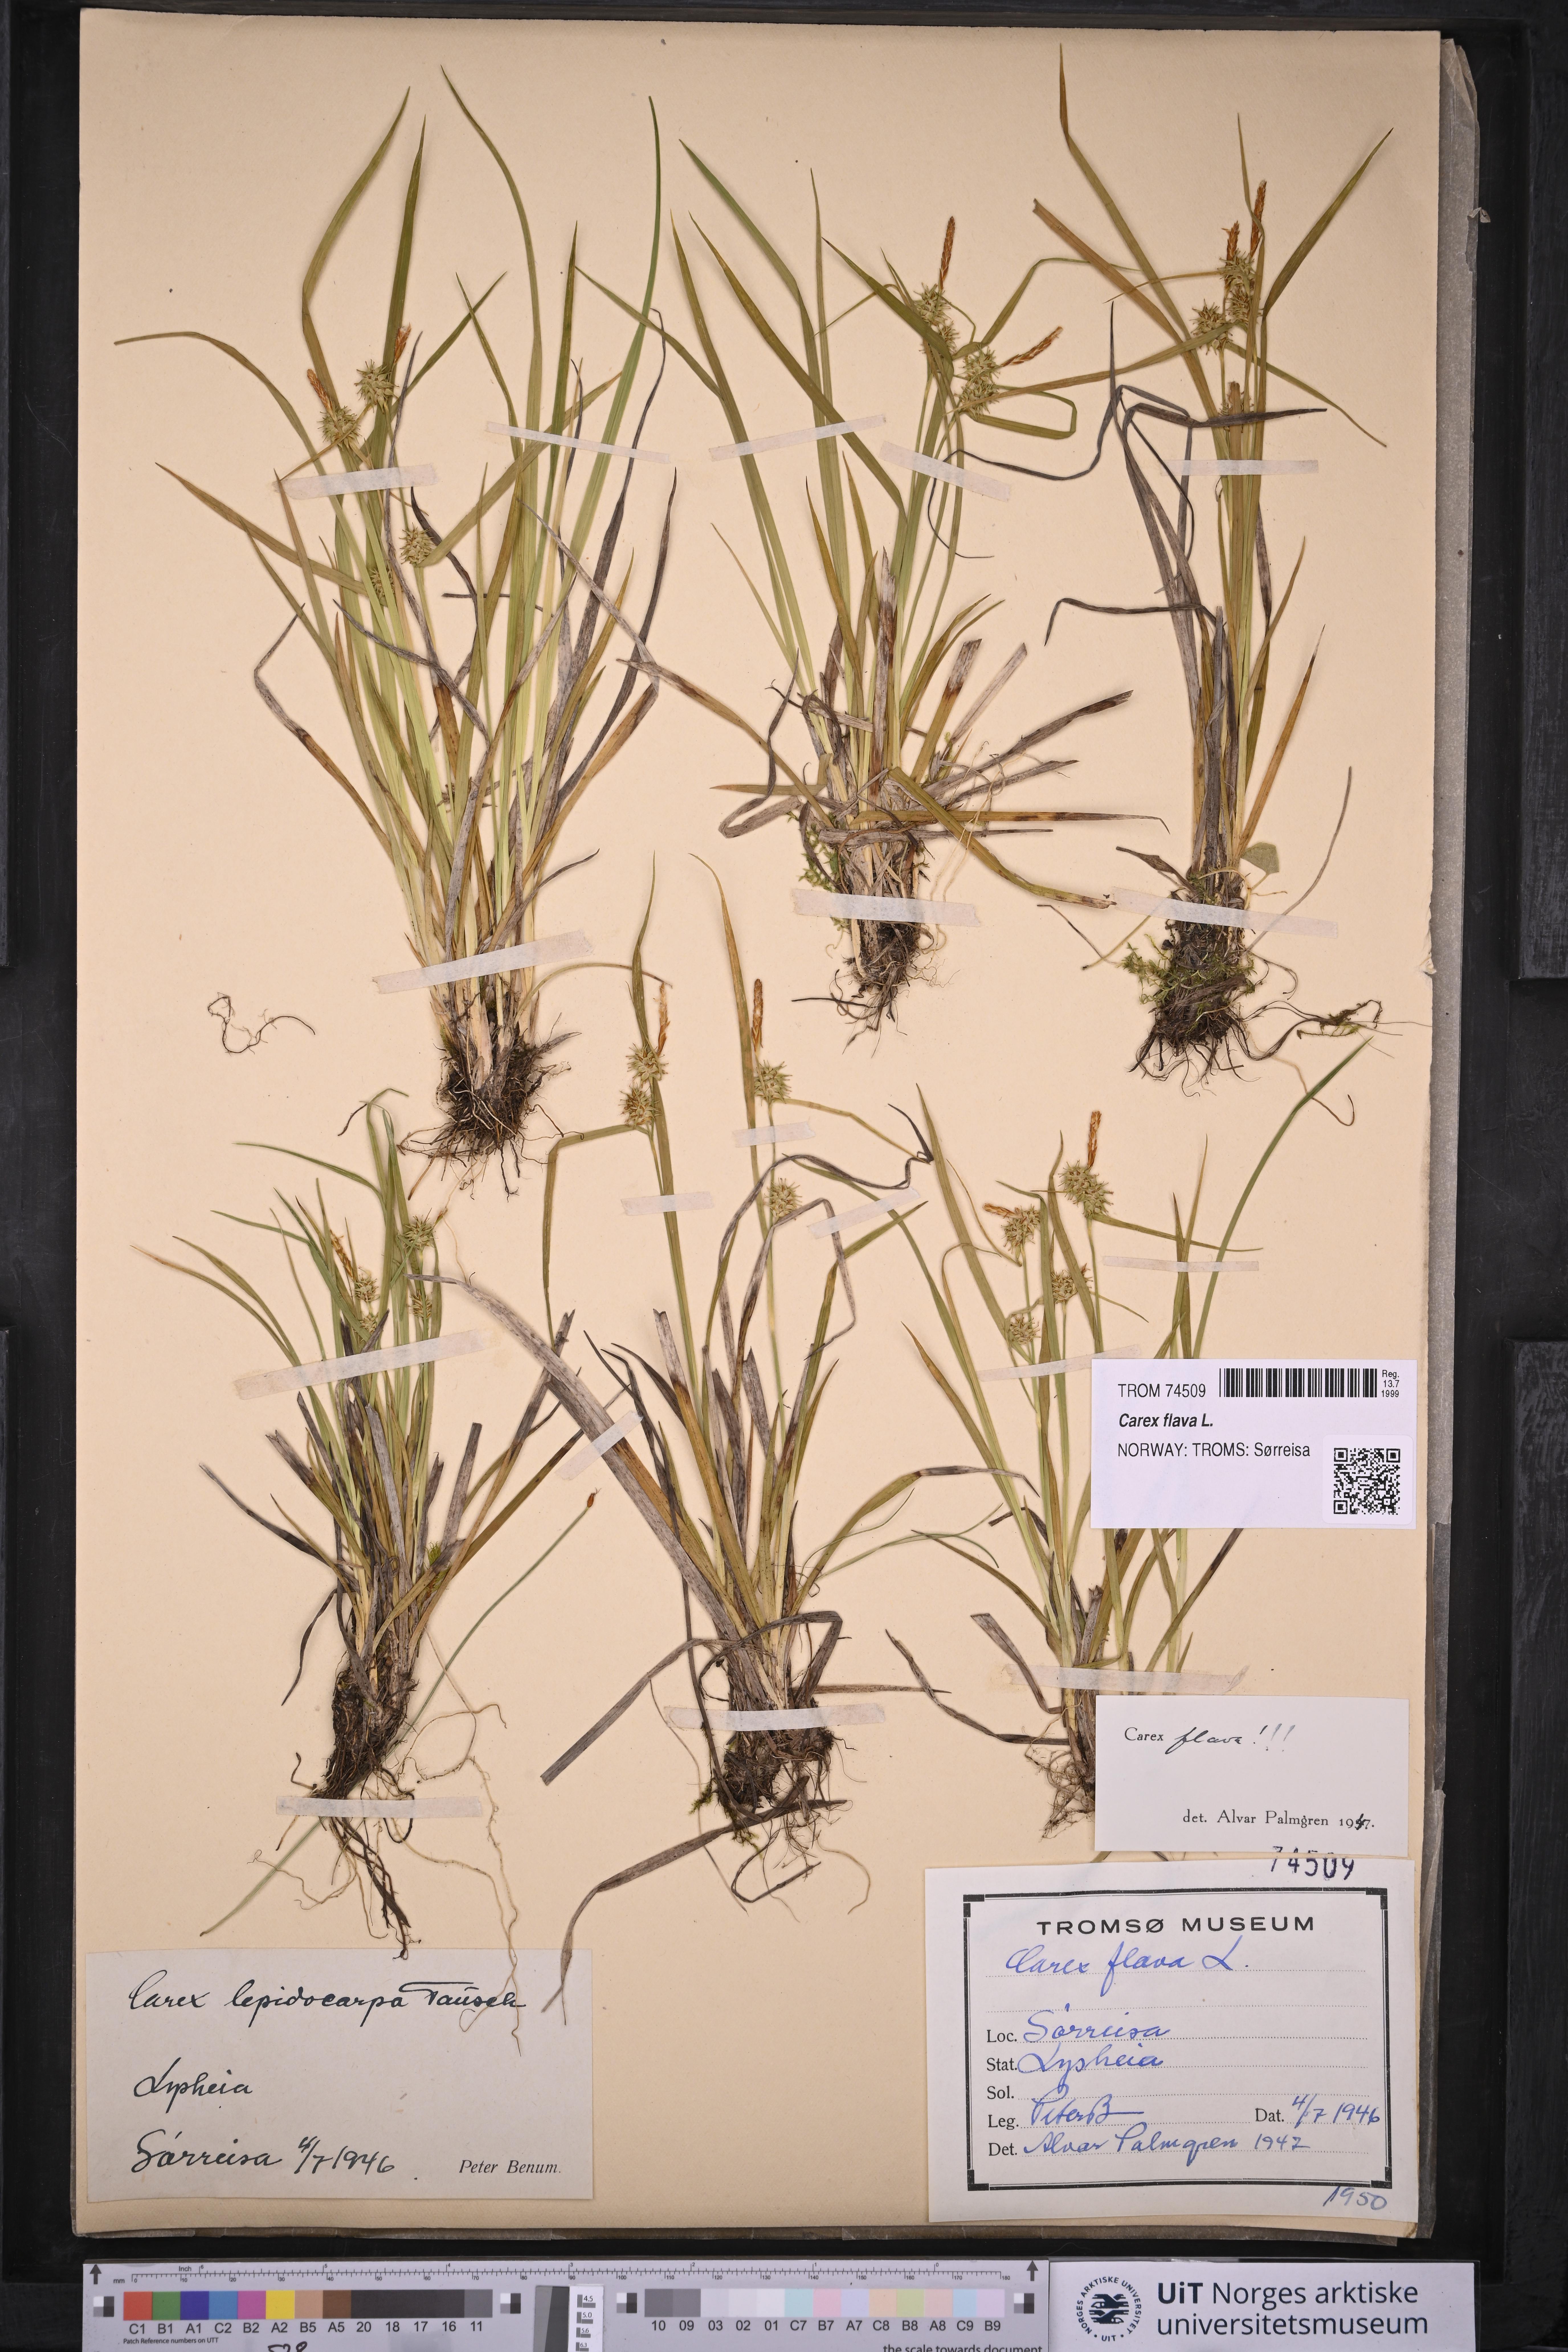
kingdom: Plantae
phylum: Tracheophyta
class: Liliopsida
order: Poales
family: Cyperaceae
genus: Carex
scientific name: Carex flava
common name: Large yellow-sedge
